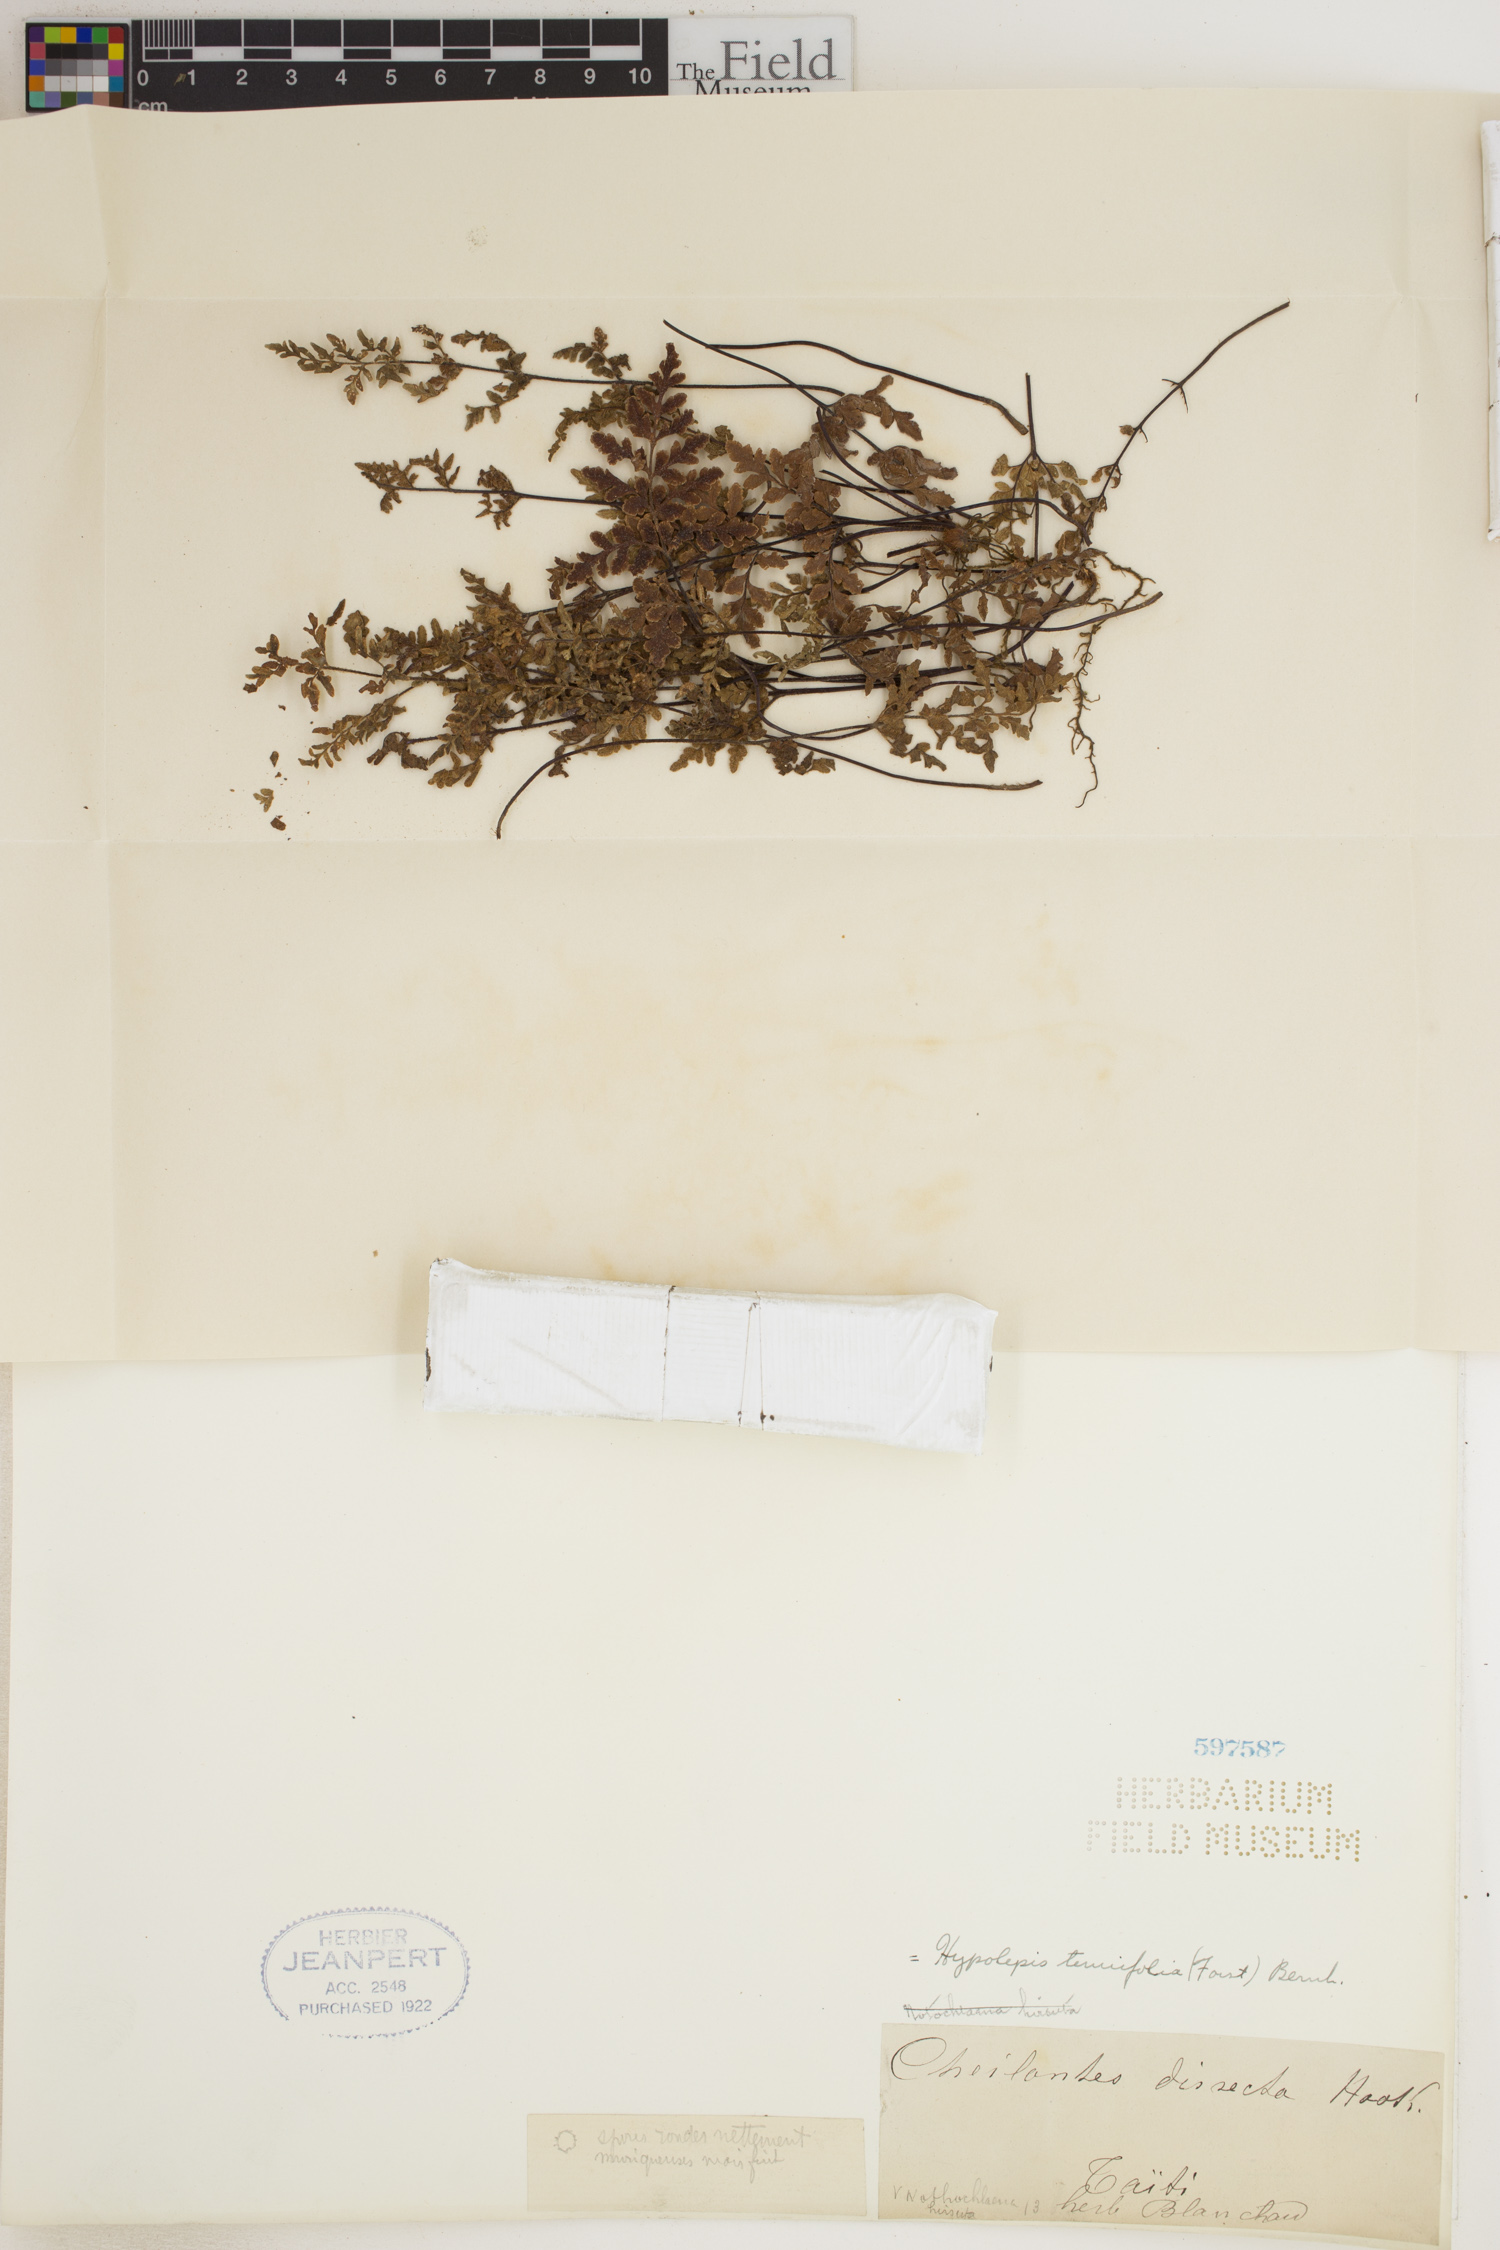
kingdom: Plantae
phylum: Tracheophyta
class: Polypodiopsida
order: Polypodiales
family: Dennstaedtiaceae
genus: Hypolepis
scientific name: Hypolepis tenuifolia
